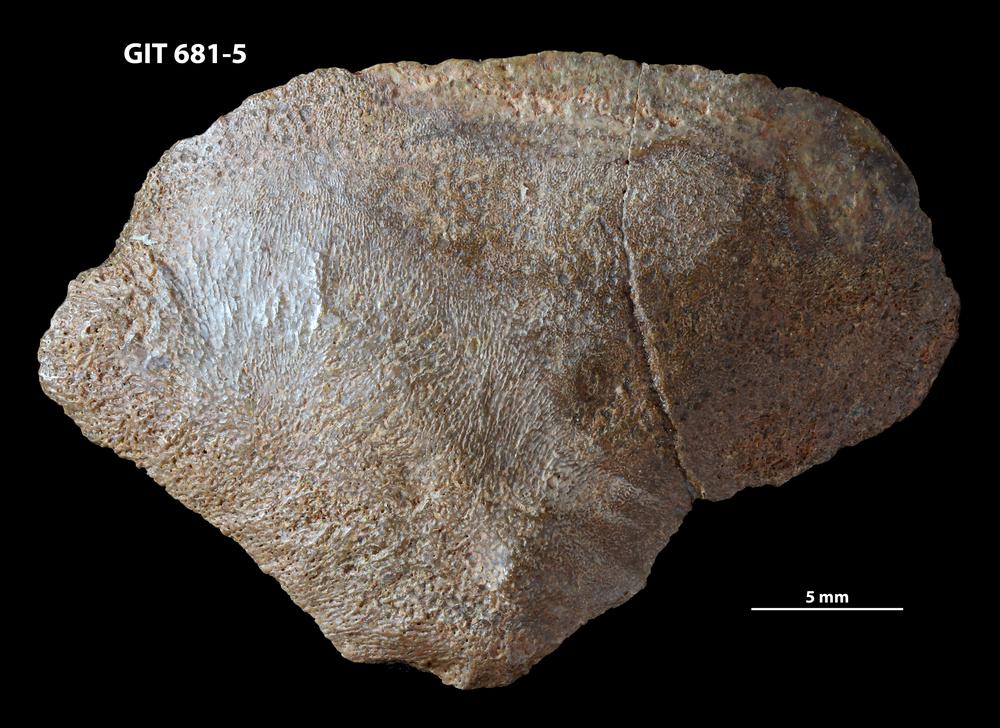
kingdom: Animalia
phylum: Chordata
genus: Hybosteus
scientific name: Hybosteus
